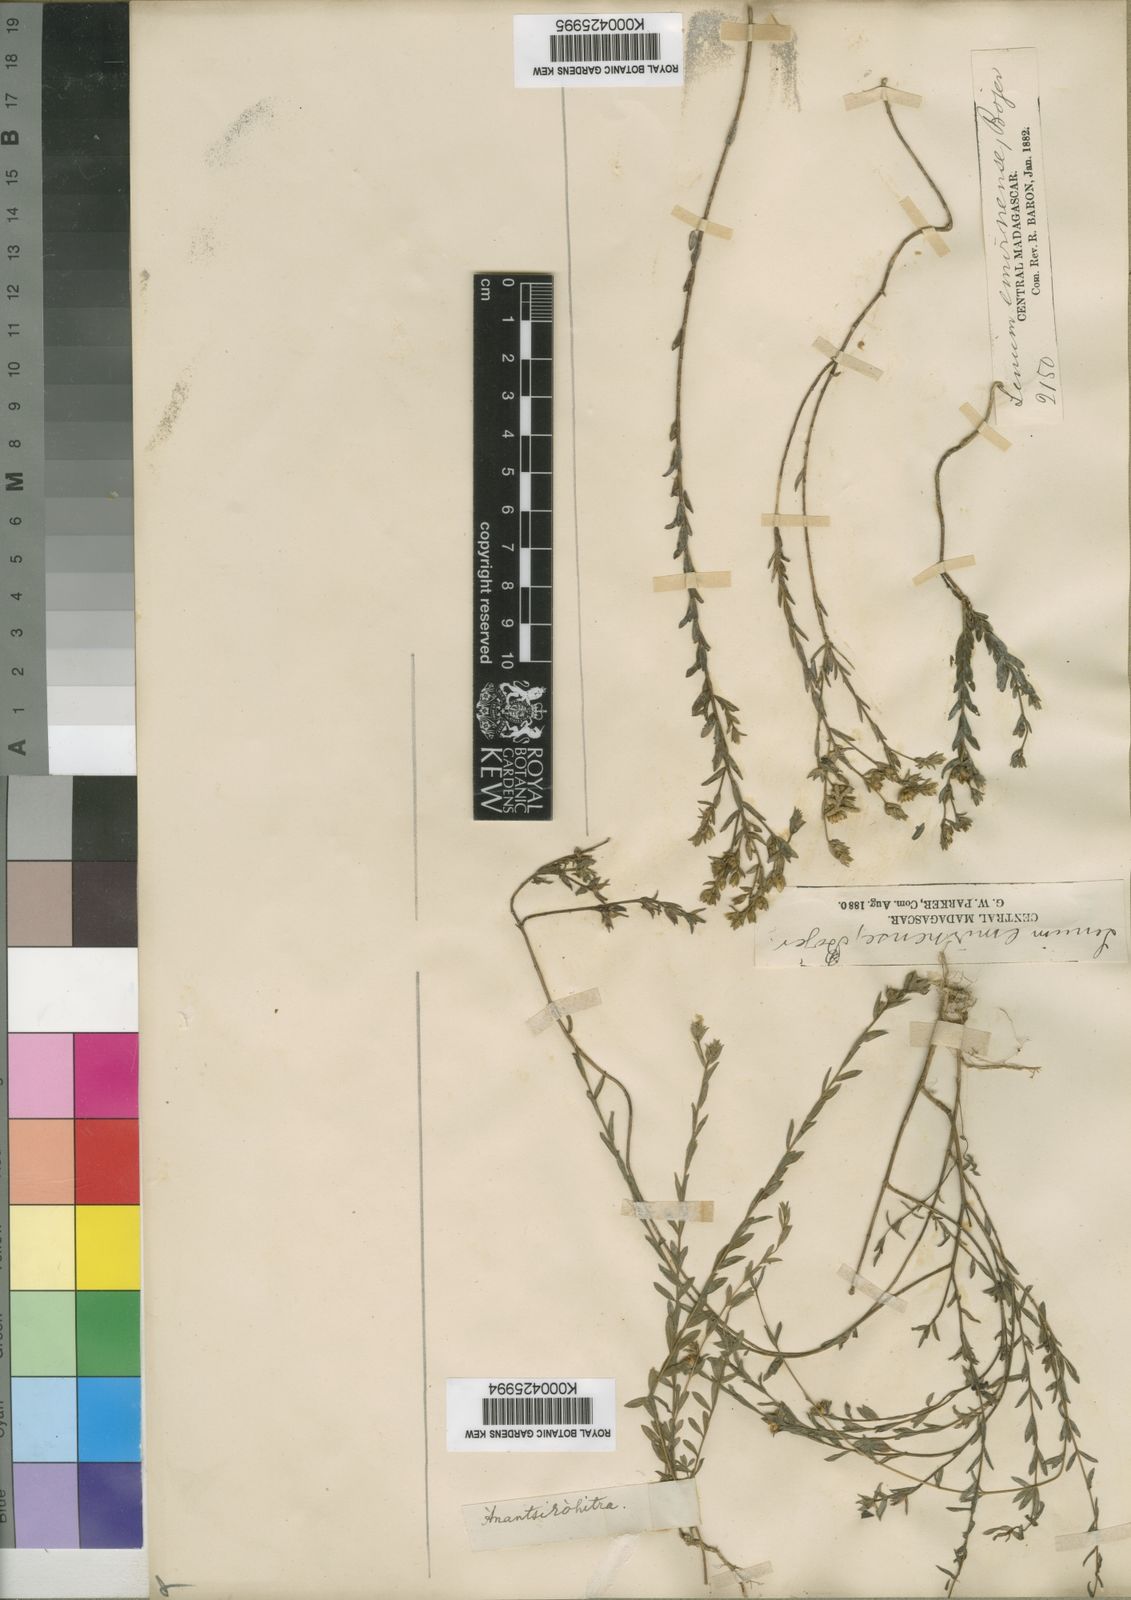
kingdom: Plantae
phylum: Tracheophyta
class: Magnoliopsida
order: Malpighiales
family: Linaceae
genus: Linum
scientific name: Linum emirnense
